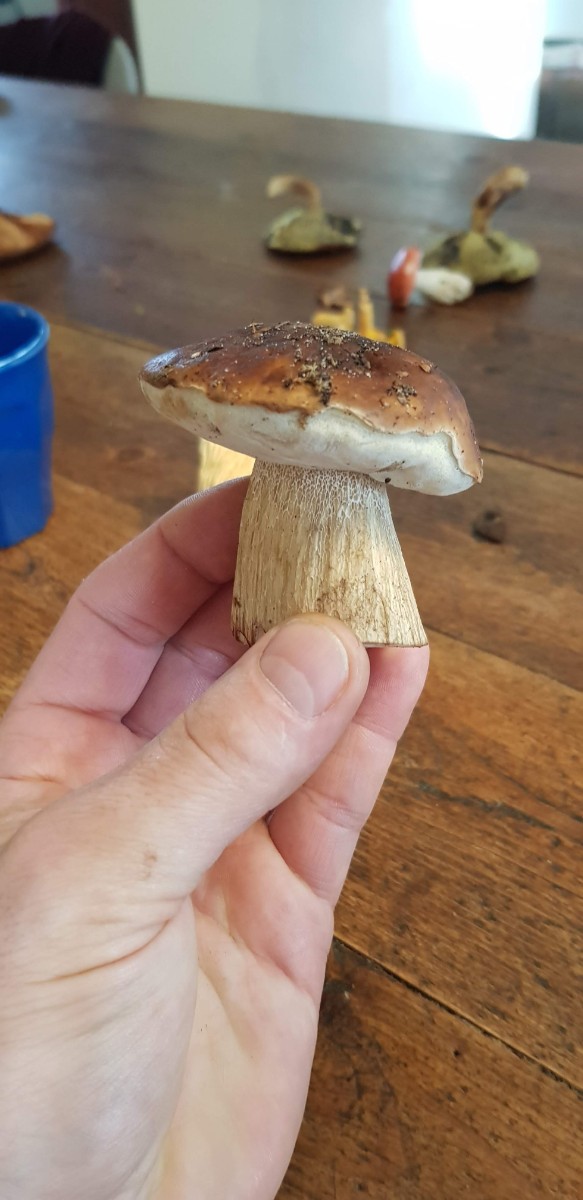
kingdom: Fungi
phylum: Basidiomycota
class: Agaricomycetes
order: Boletales
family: Boletaceae
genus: Boletus
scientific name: Boletus edulis
